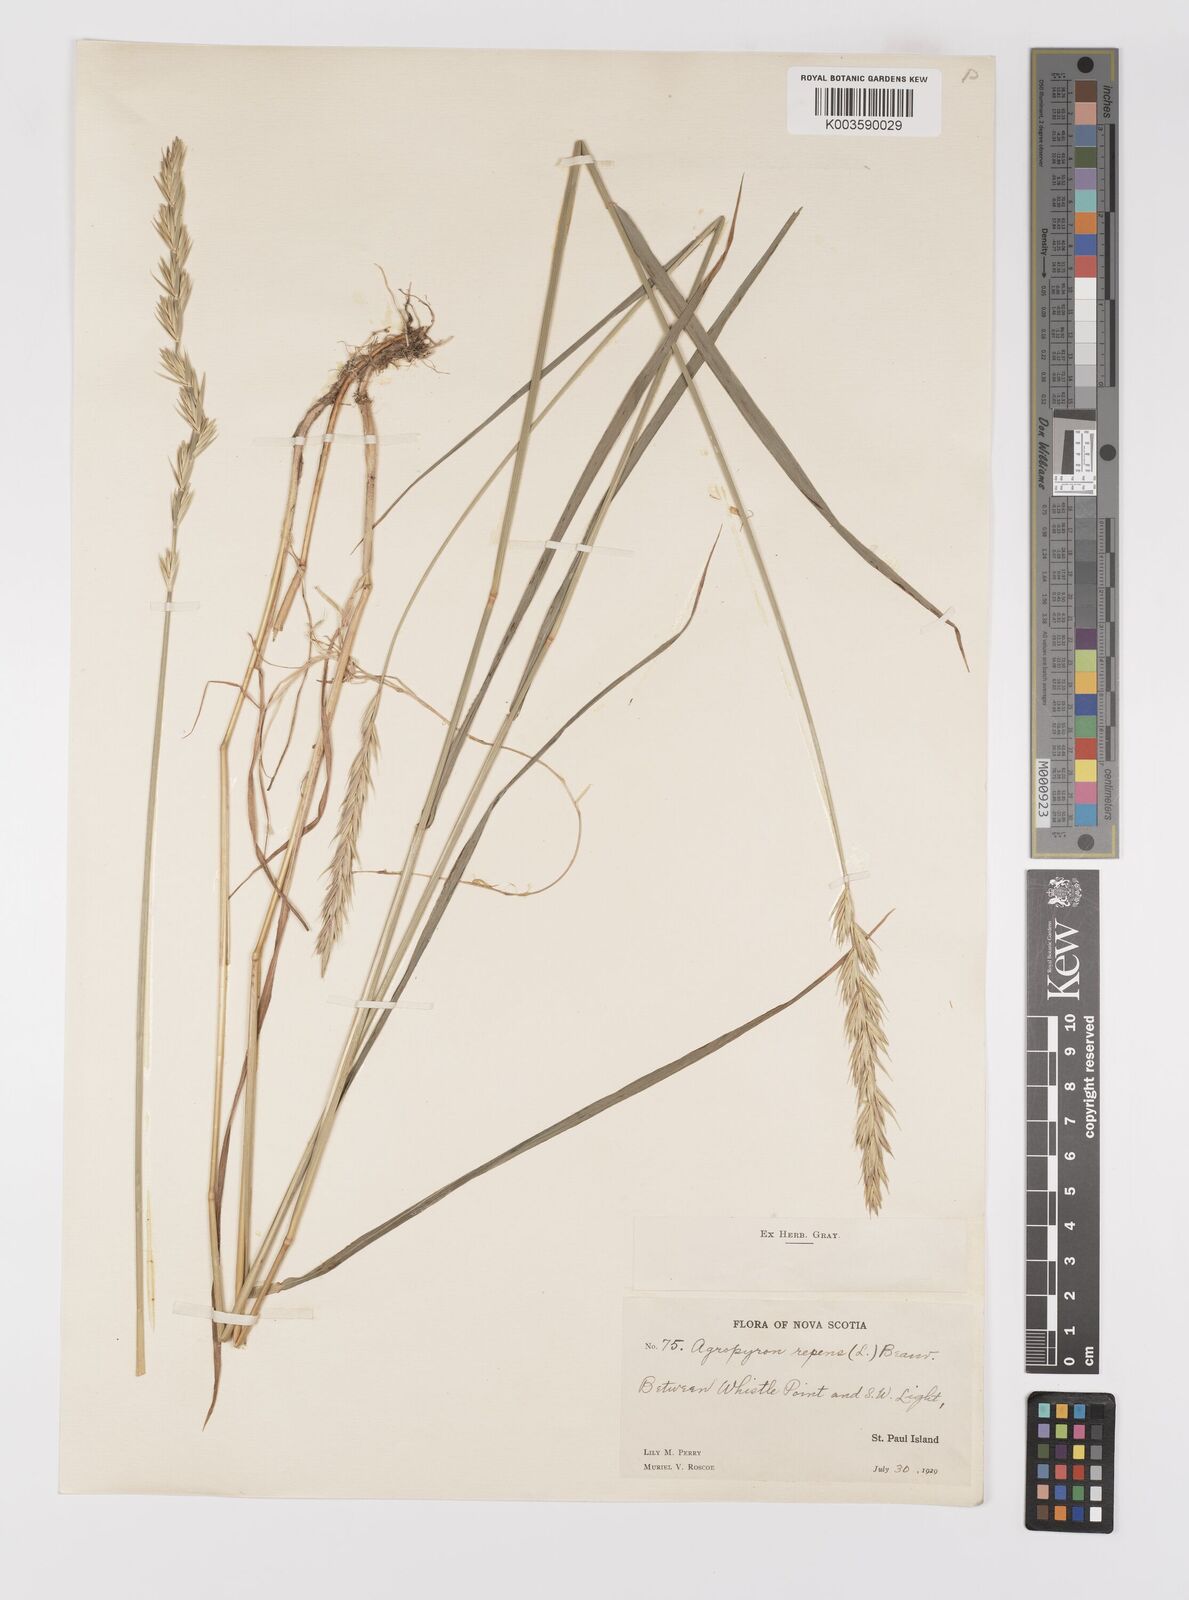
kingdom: Plantae
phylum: Tracheophyta
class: Liliopsida
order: Poales
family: Poaceae
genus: Elymus
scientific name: Elymus repens
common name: Quackgrass
